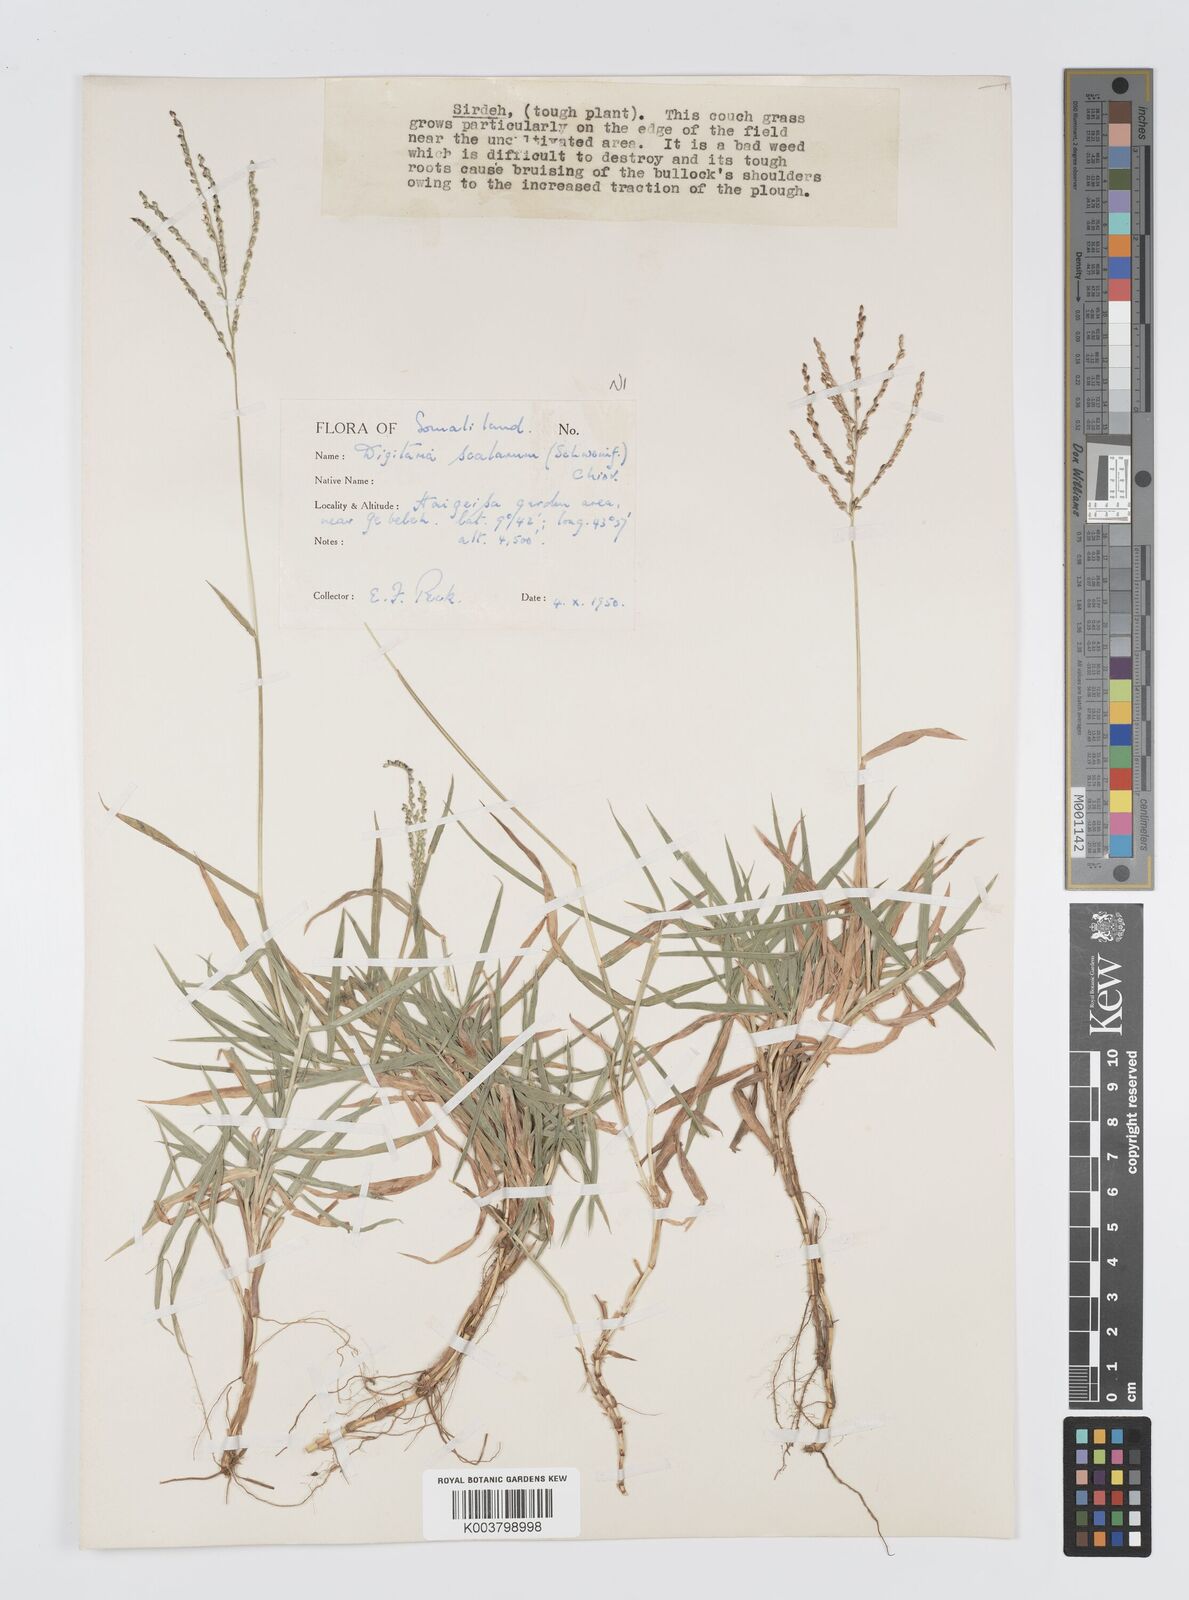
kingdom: Plantae
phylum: Tracheophyta
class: Liliopsida
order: Poales
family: Poaceae
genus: Digitaria
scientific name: Digitaria abyssinica
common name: African couchgrass
